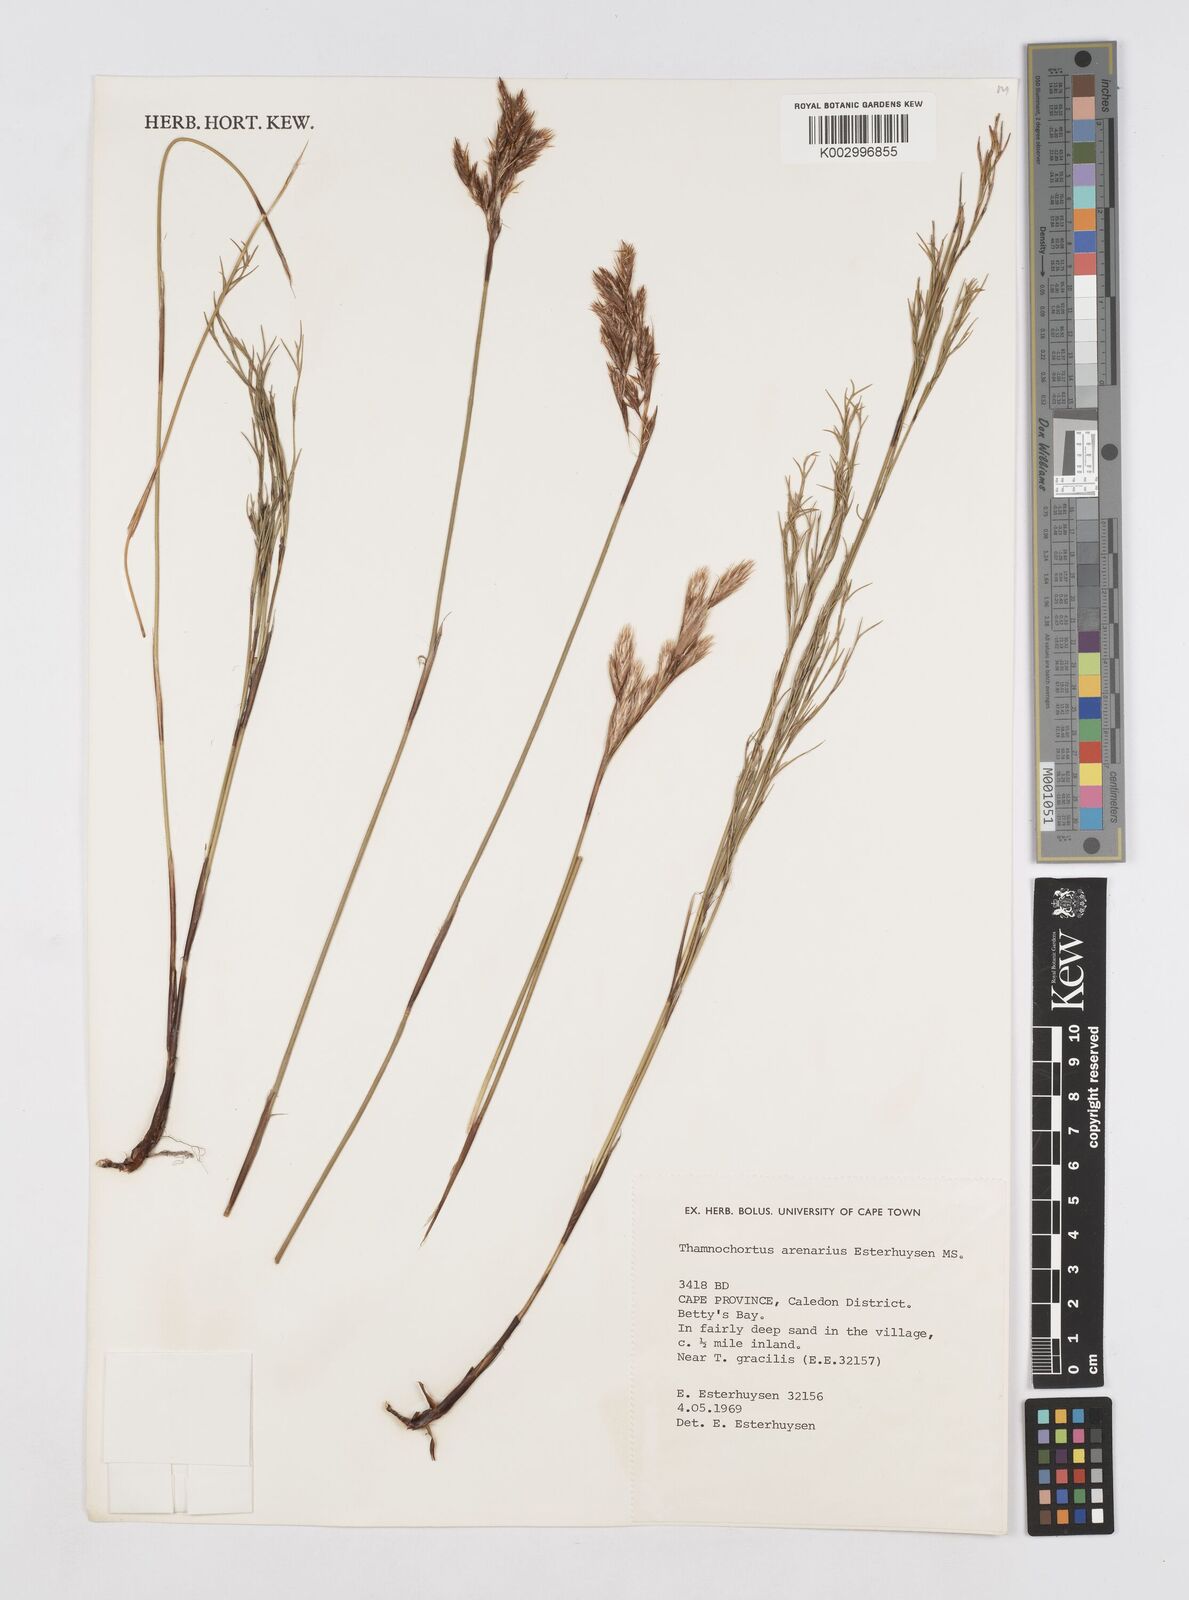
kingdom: Plantae
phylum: Tracheophyta
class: Liliopsida
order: Poales
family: Restionaceae
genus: Thamnochortus
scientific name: Thamnochortus arenarius
